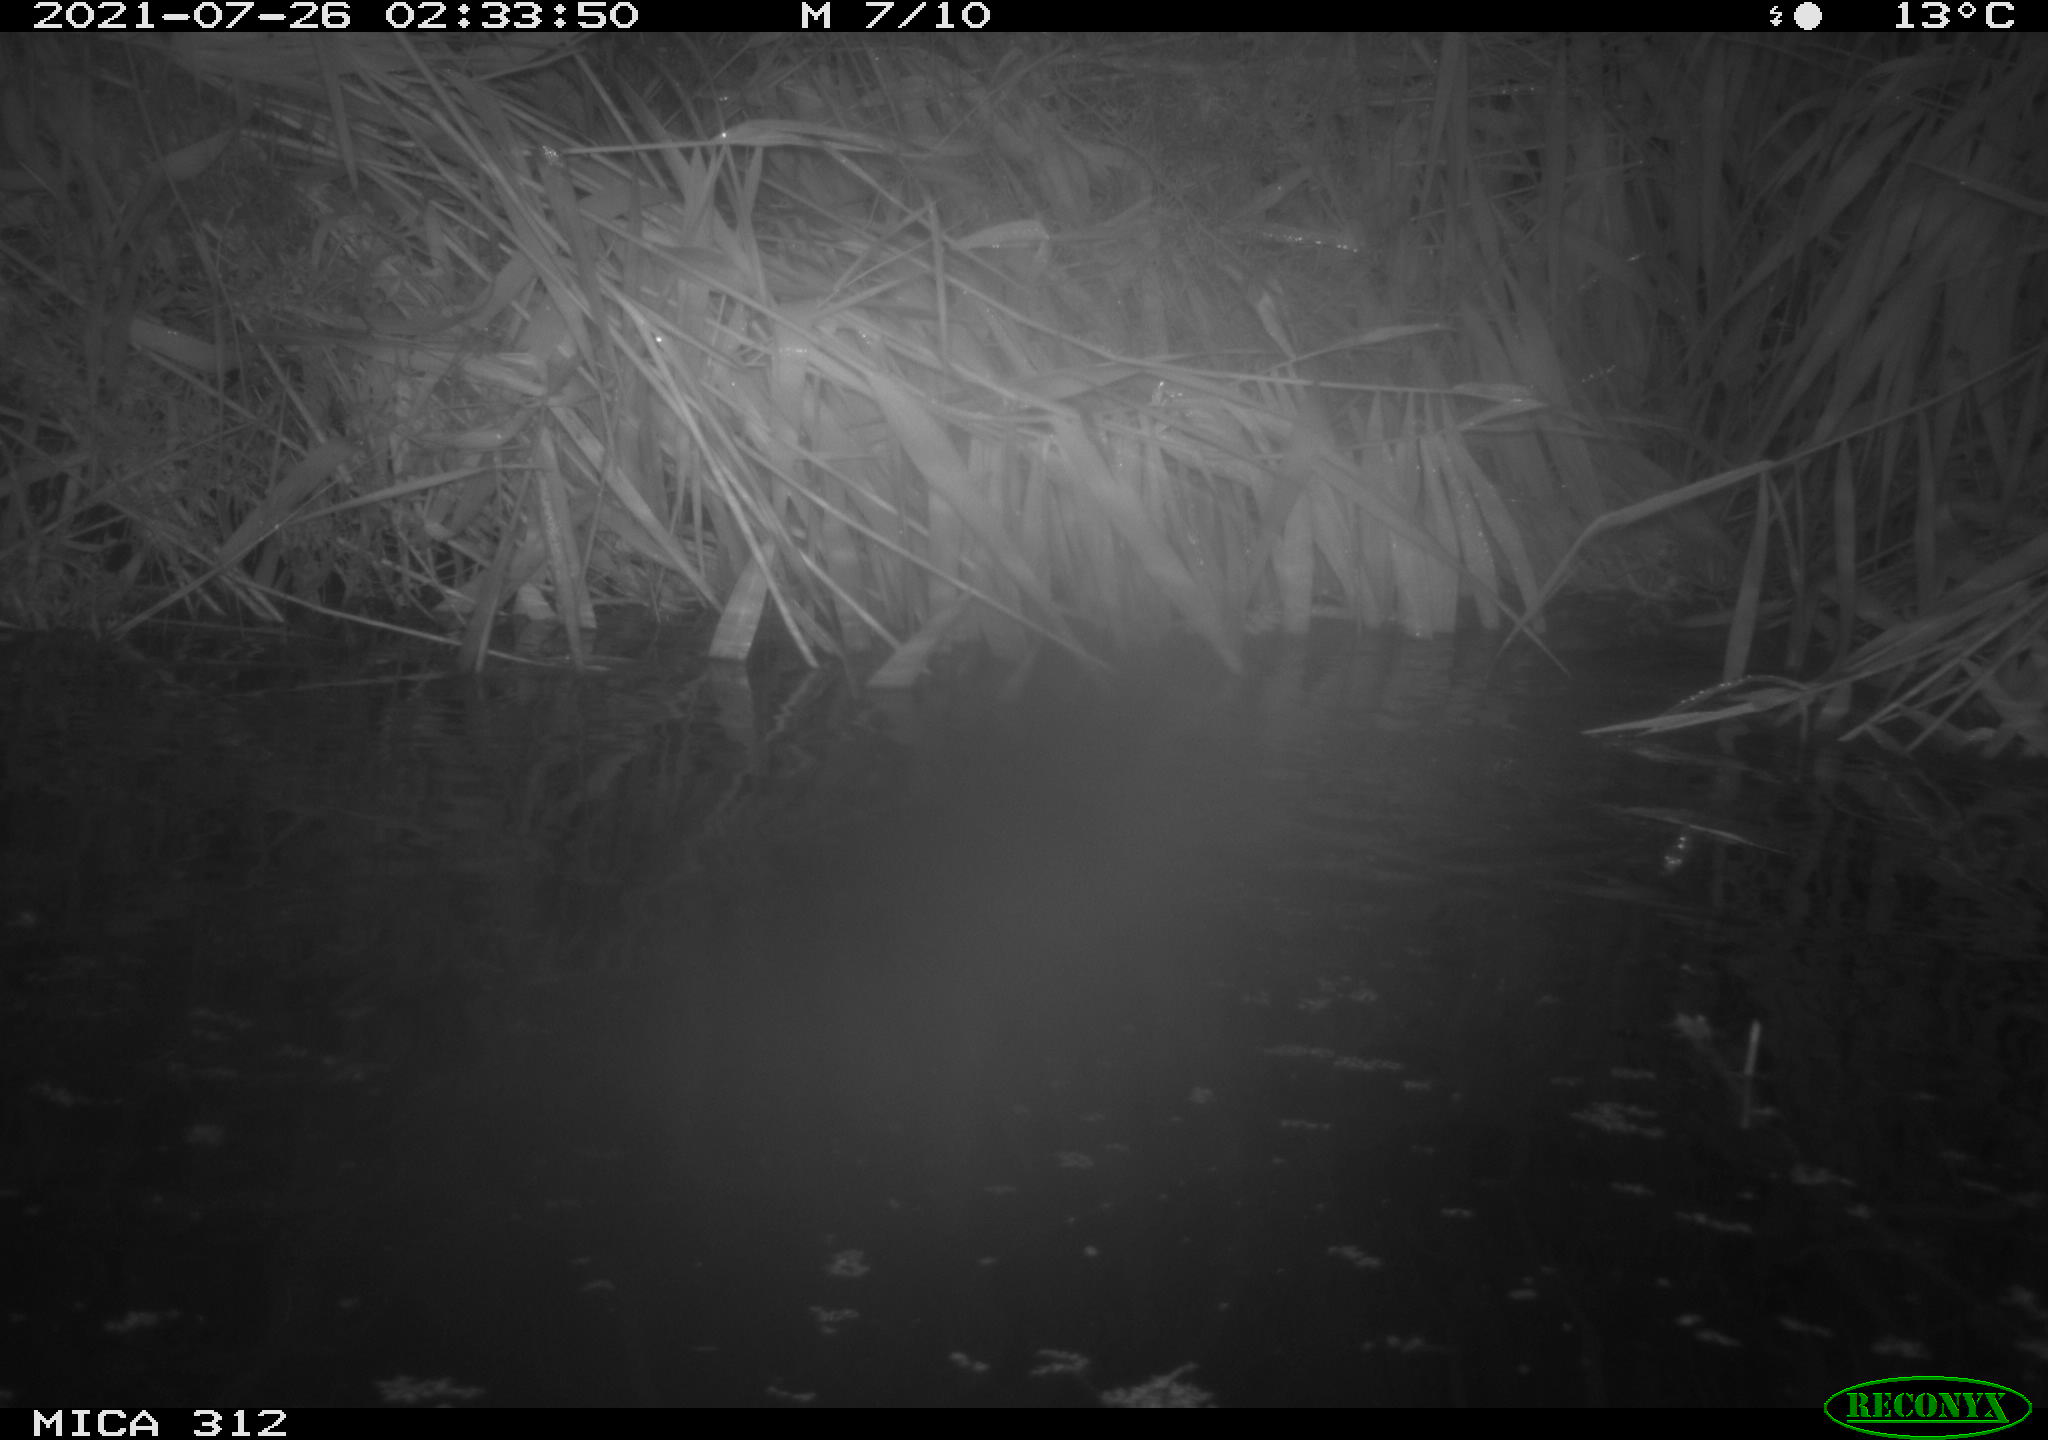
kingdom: Animalia
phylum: Chordata
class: Mammalia
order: Rodentia
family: Muridae
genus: Rattus
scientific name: Rattus norvegicus
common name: Brown rat
